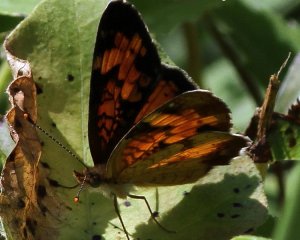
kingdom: Animalia
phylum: Arthropoda
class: Insecta
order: Lepidoptera
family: Nymphalidae
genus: Phyciodes
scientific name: Phyciodes tharos
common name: Northern Crescent
